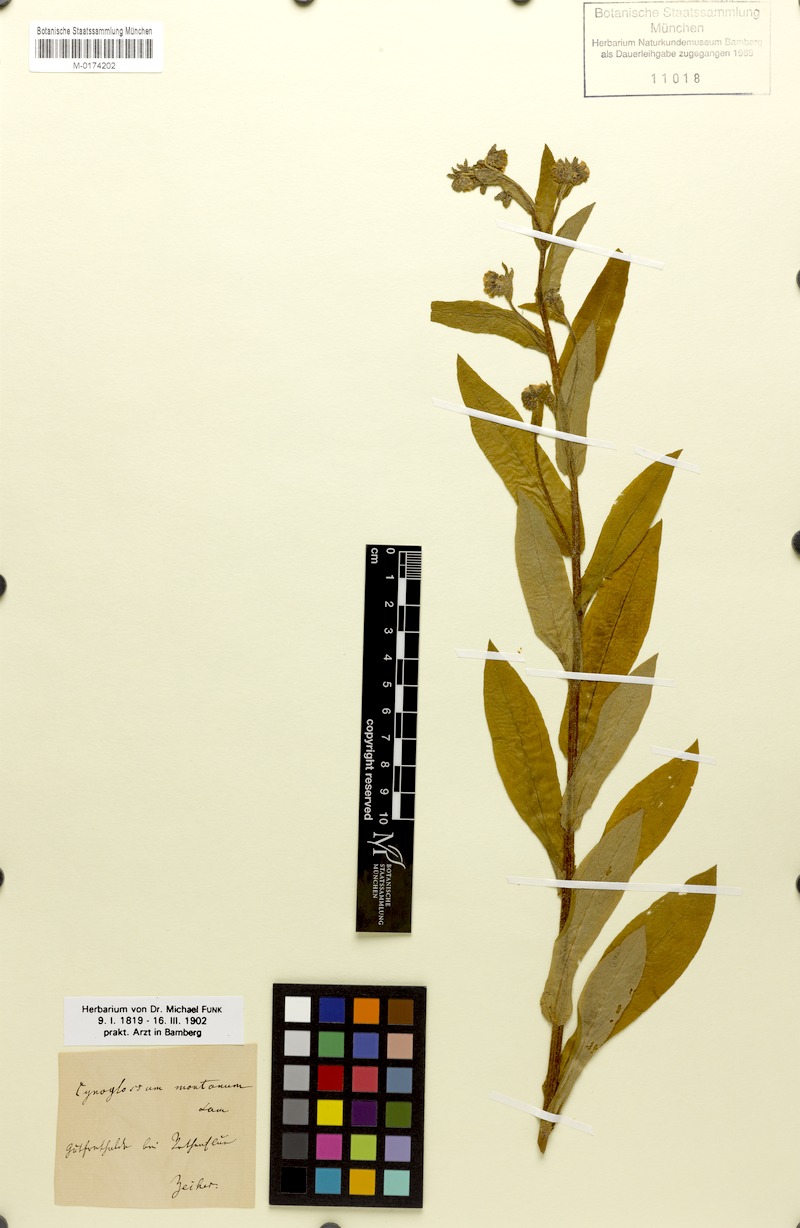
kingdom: Plantae
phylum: Tracheophyta
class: Magnoliopsida
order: Boraginales
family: Boraginaceae
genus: Cynoglossum
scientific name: Cynoglossum germanicum
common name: Green hound's-tongue
